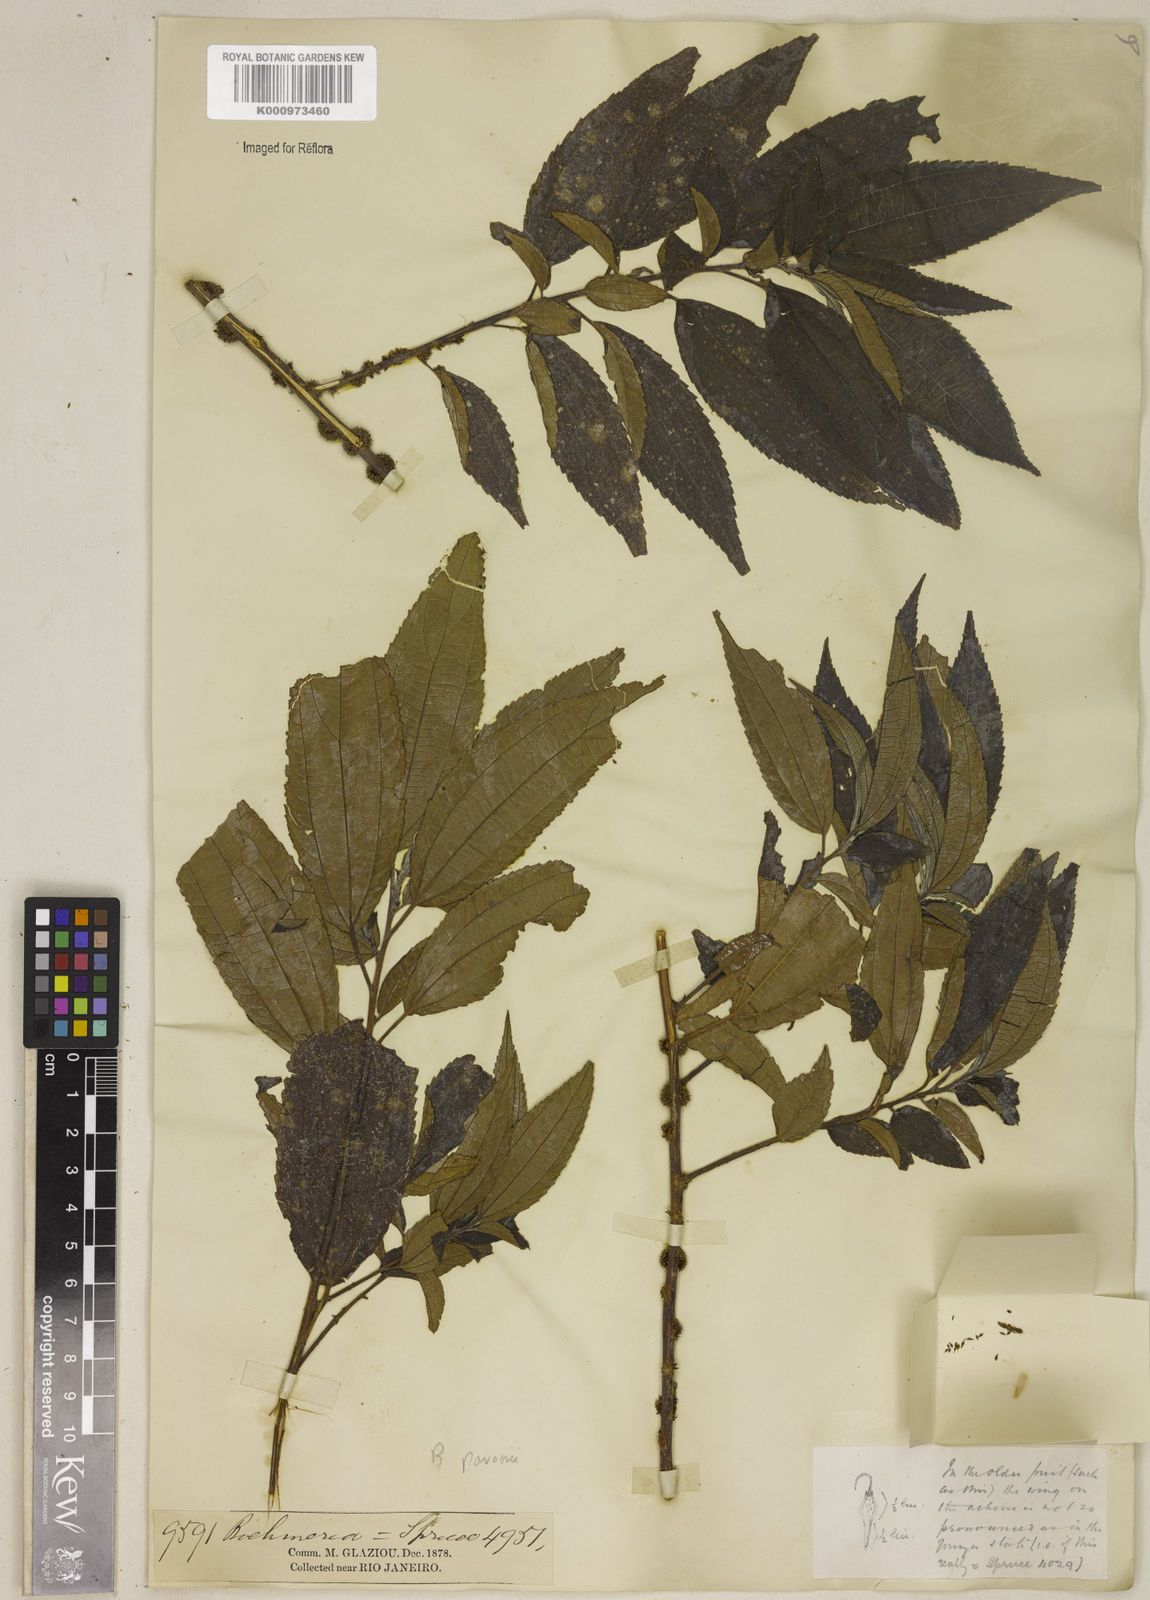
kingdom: Plantae
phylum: Tracheophyta
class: Magnoliopsida
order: Rosales
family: Urticaceae
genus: Boehmeria
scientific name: Boehmeria pavonii
